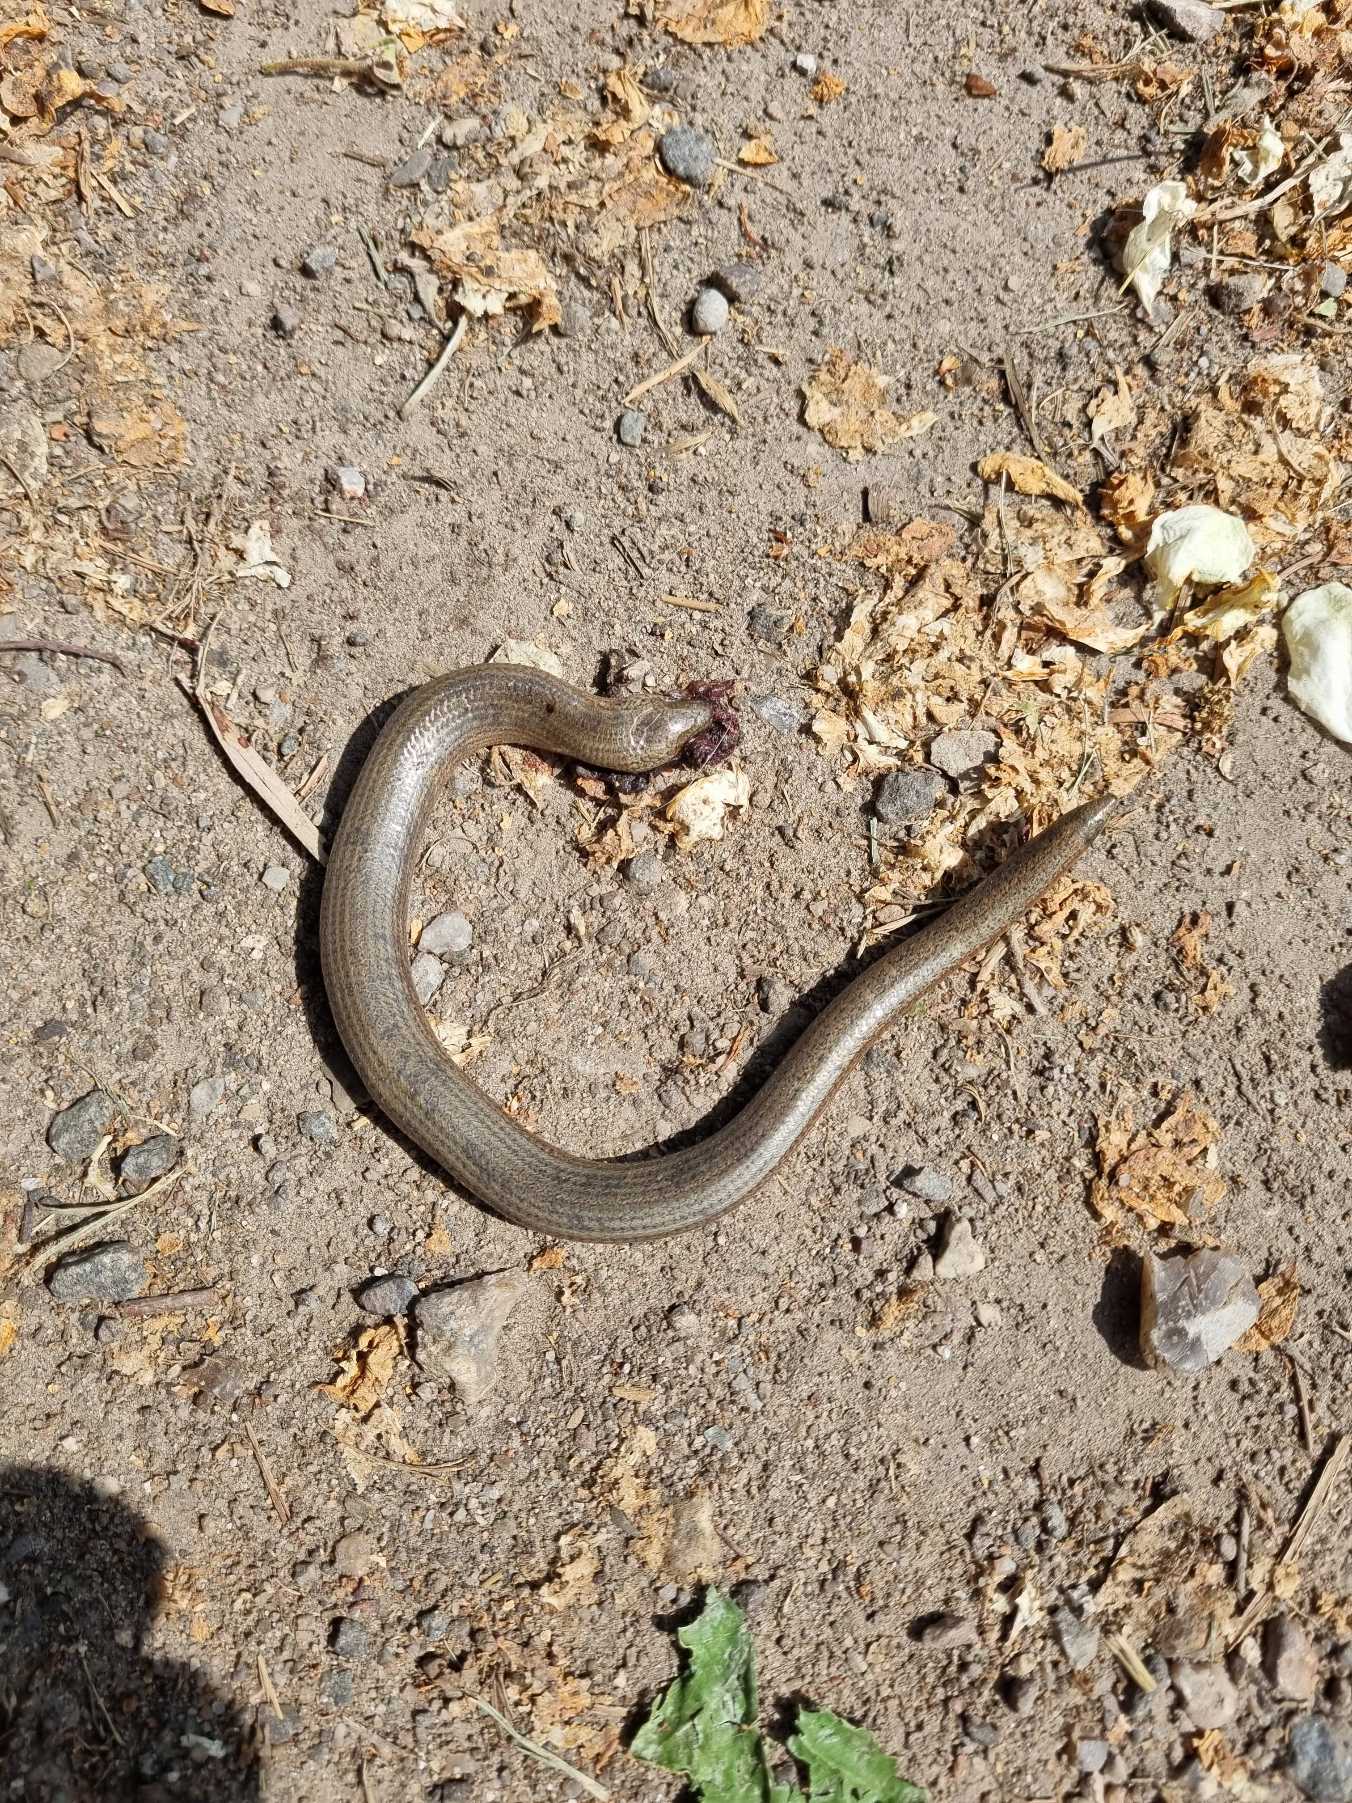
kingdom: Animalia
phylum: Chordata
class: Squamata
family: Anguidae
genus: Anguis
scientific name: Anguis fragilis
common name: Stålorm
